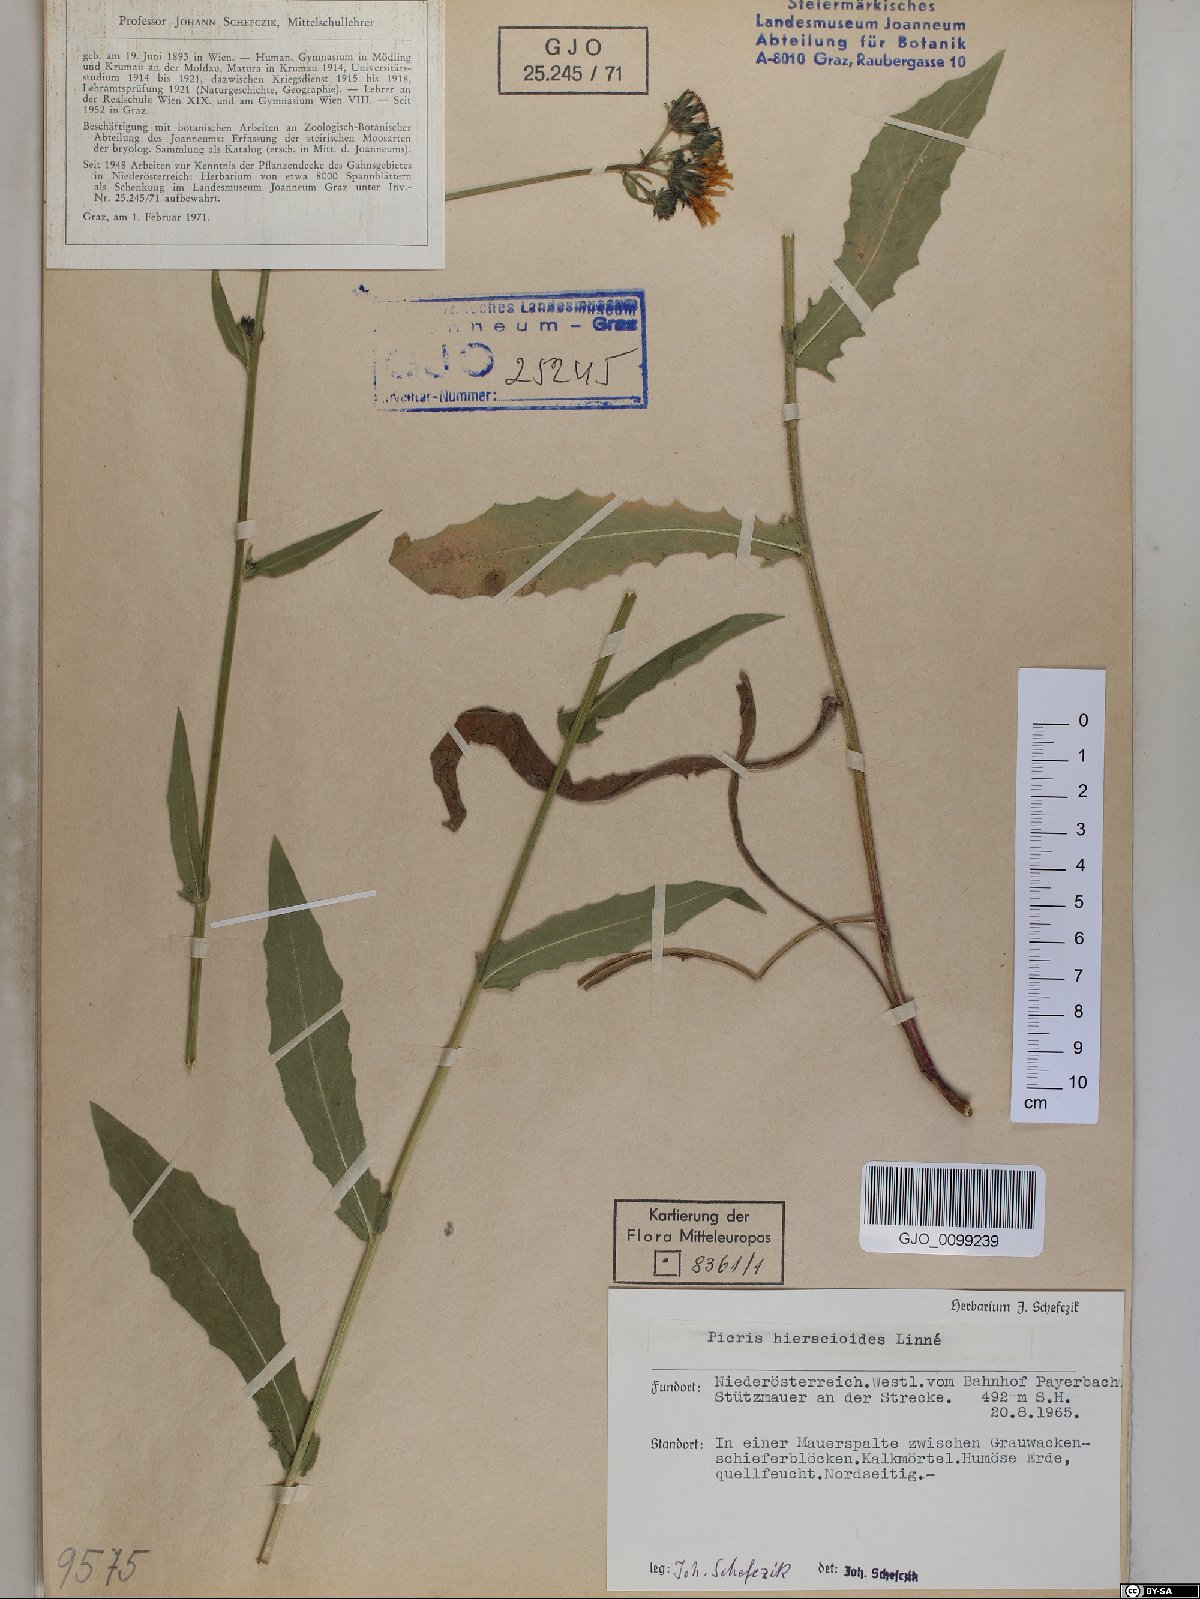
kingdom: Plantae
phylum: Tracheophyta
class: Magnoliopsida
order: Asterales
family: Asteraceae
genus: Picris
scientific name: Picris hieracioides
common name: Hawkweed oxtongue
